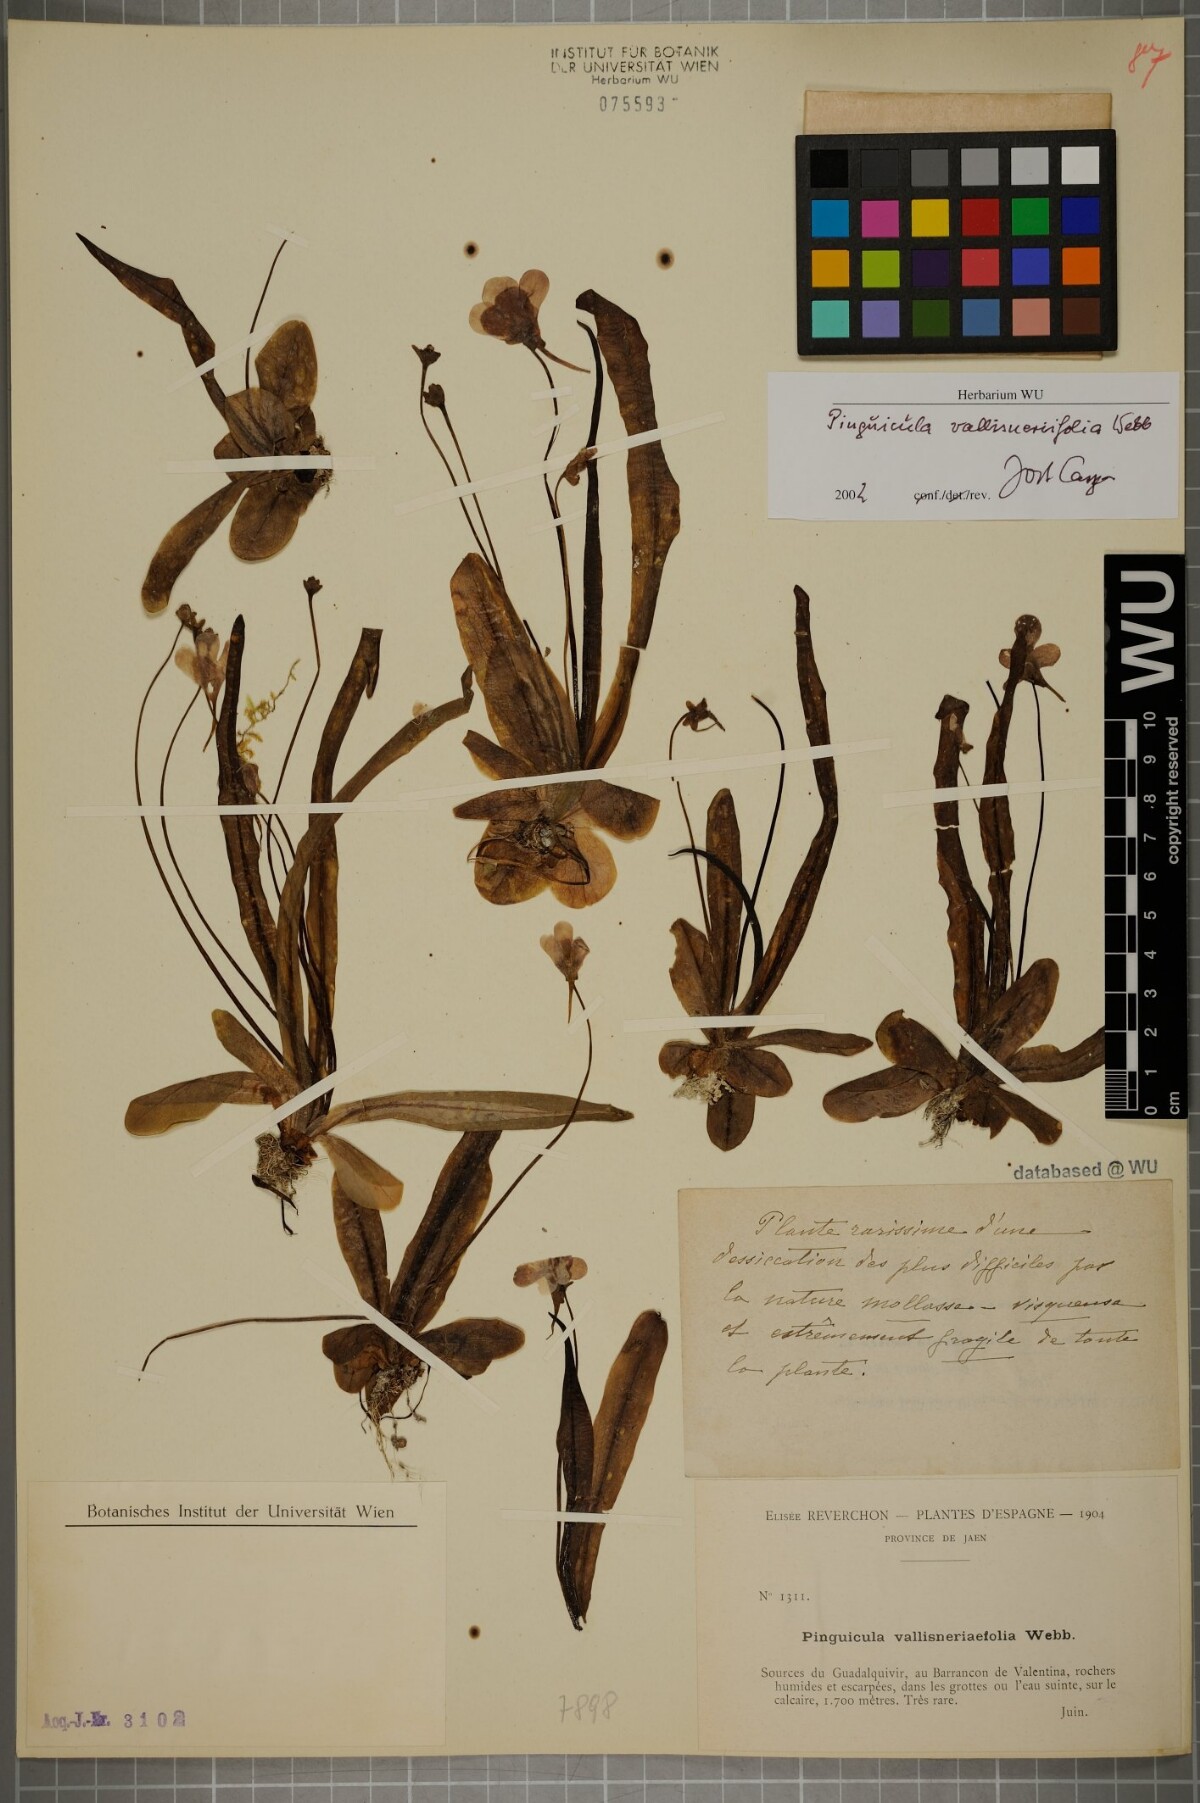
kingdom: Plantae
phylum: Tracheophyta
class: Magnoliopsida
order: Lamiales
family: Lentibulariaceae
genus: Pinguicula
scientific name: Pinguicula vallisneriifolia
